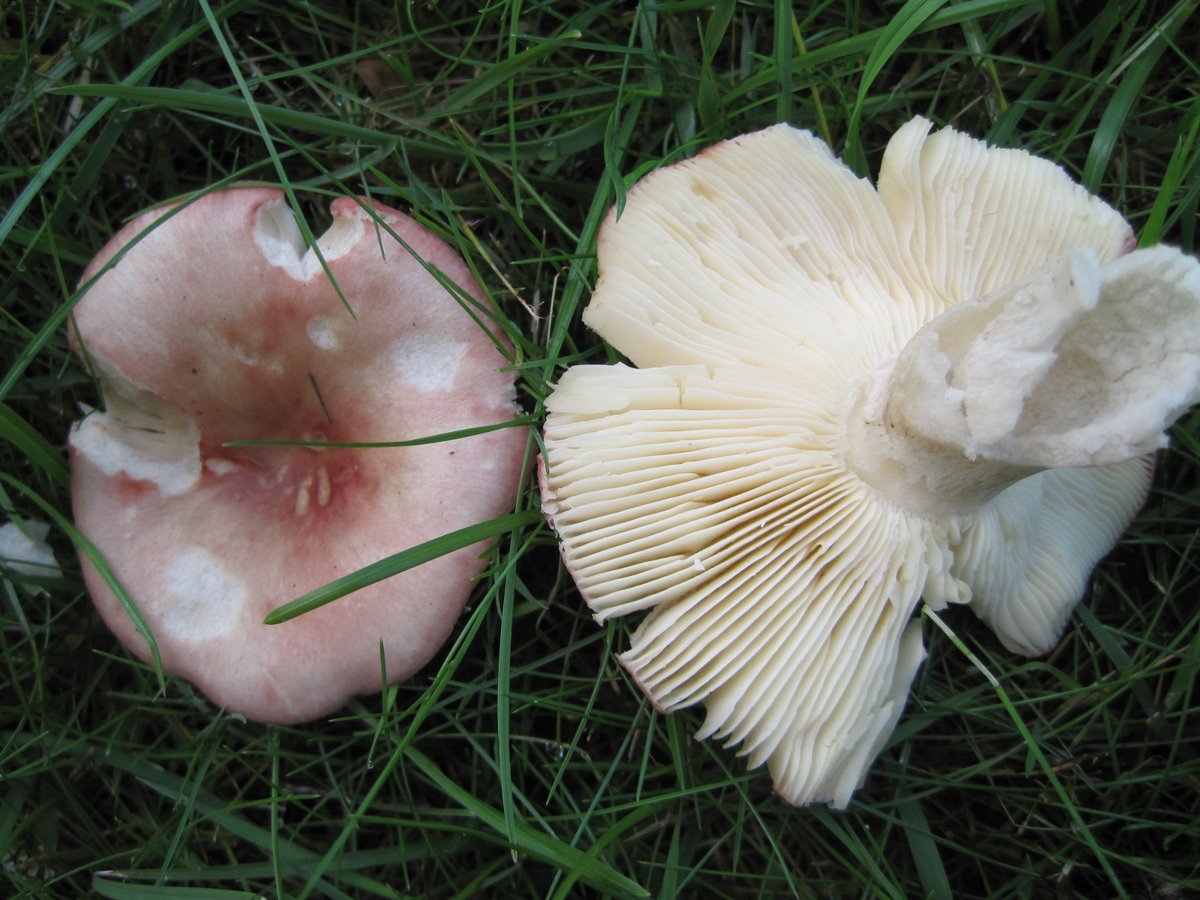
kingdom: Fungi
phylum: Basidiomycota
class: Agaricomycetes
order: Russulales
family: Russulaceae
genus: Russula
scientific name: Russula depallens
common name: falmende skørhat
